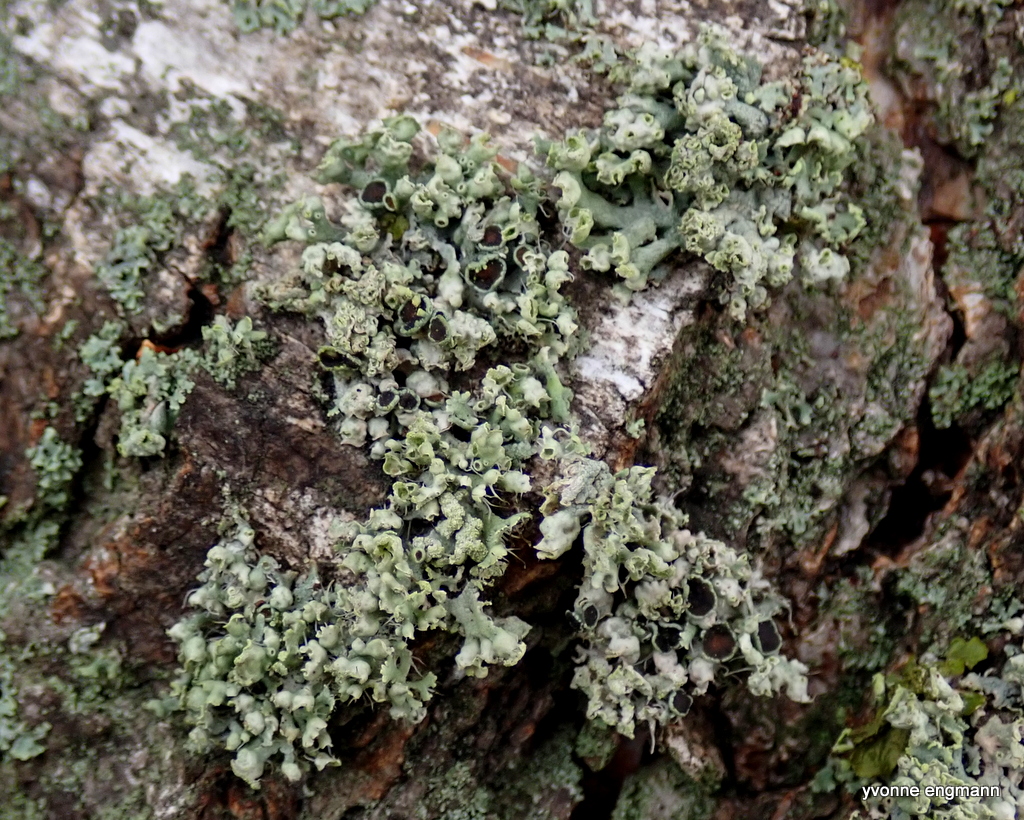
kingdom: Fungi
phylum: Ascomycota
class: Lecanoromycetes
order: Caliciales
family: Physciaceae
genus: Physcia
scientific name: Physcia tenella
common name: spæd rosetlav
